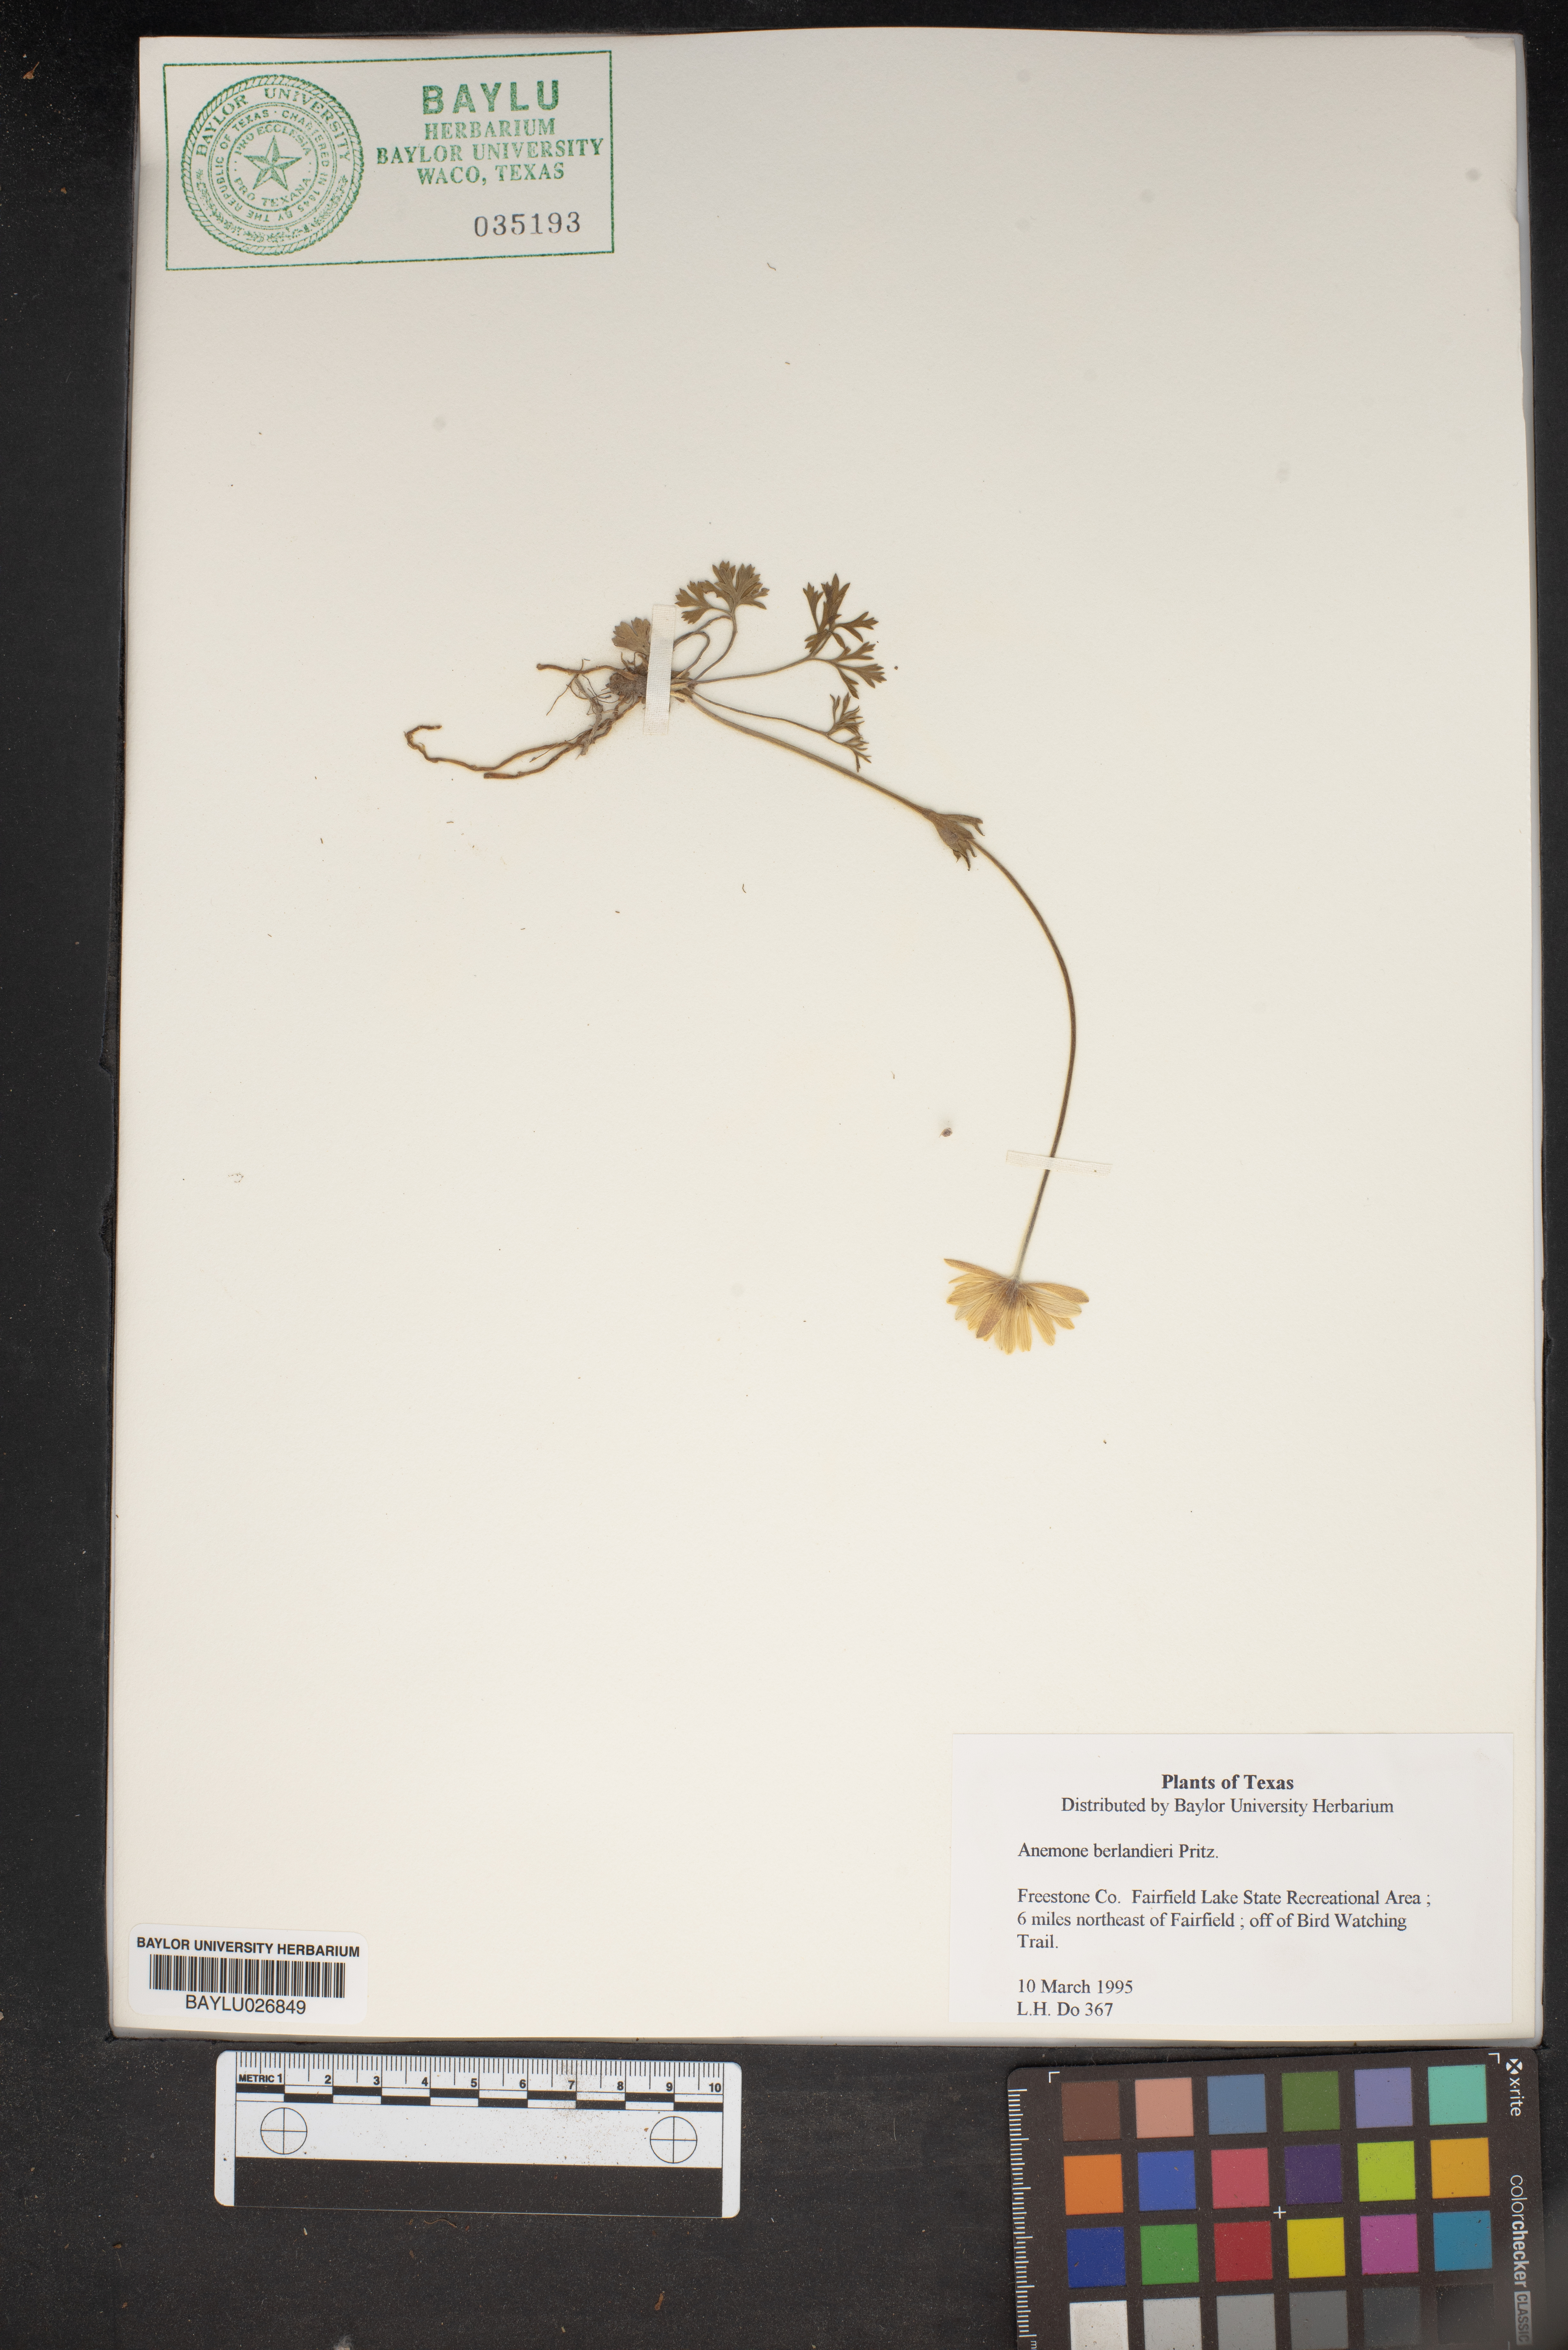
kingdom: Plantae
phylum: Tracheophyta
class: Magnoliopsida
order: Ranunculales
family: Ranunculaceae
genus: Anemone
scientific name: Anemone berlandieri
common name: Ten-petal anemone
